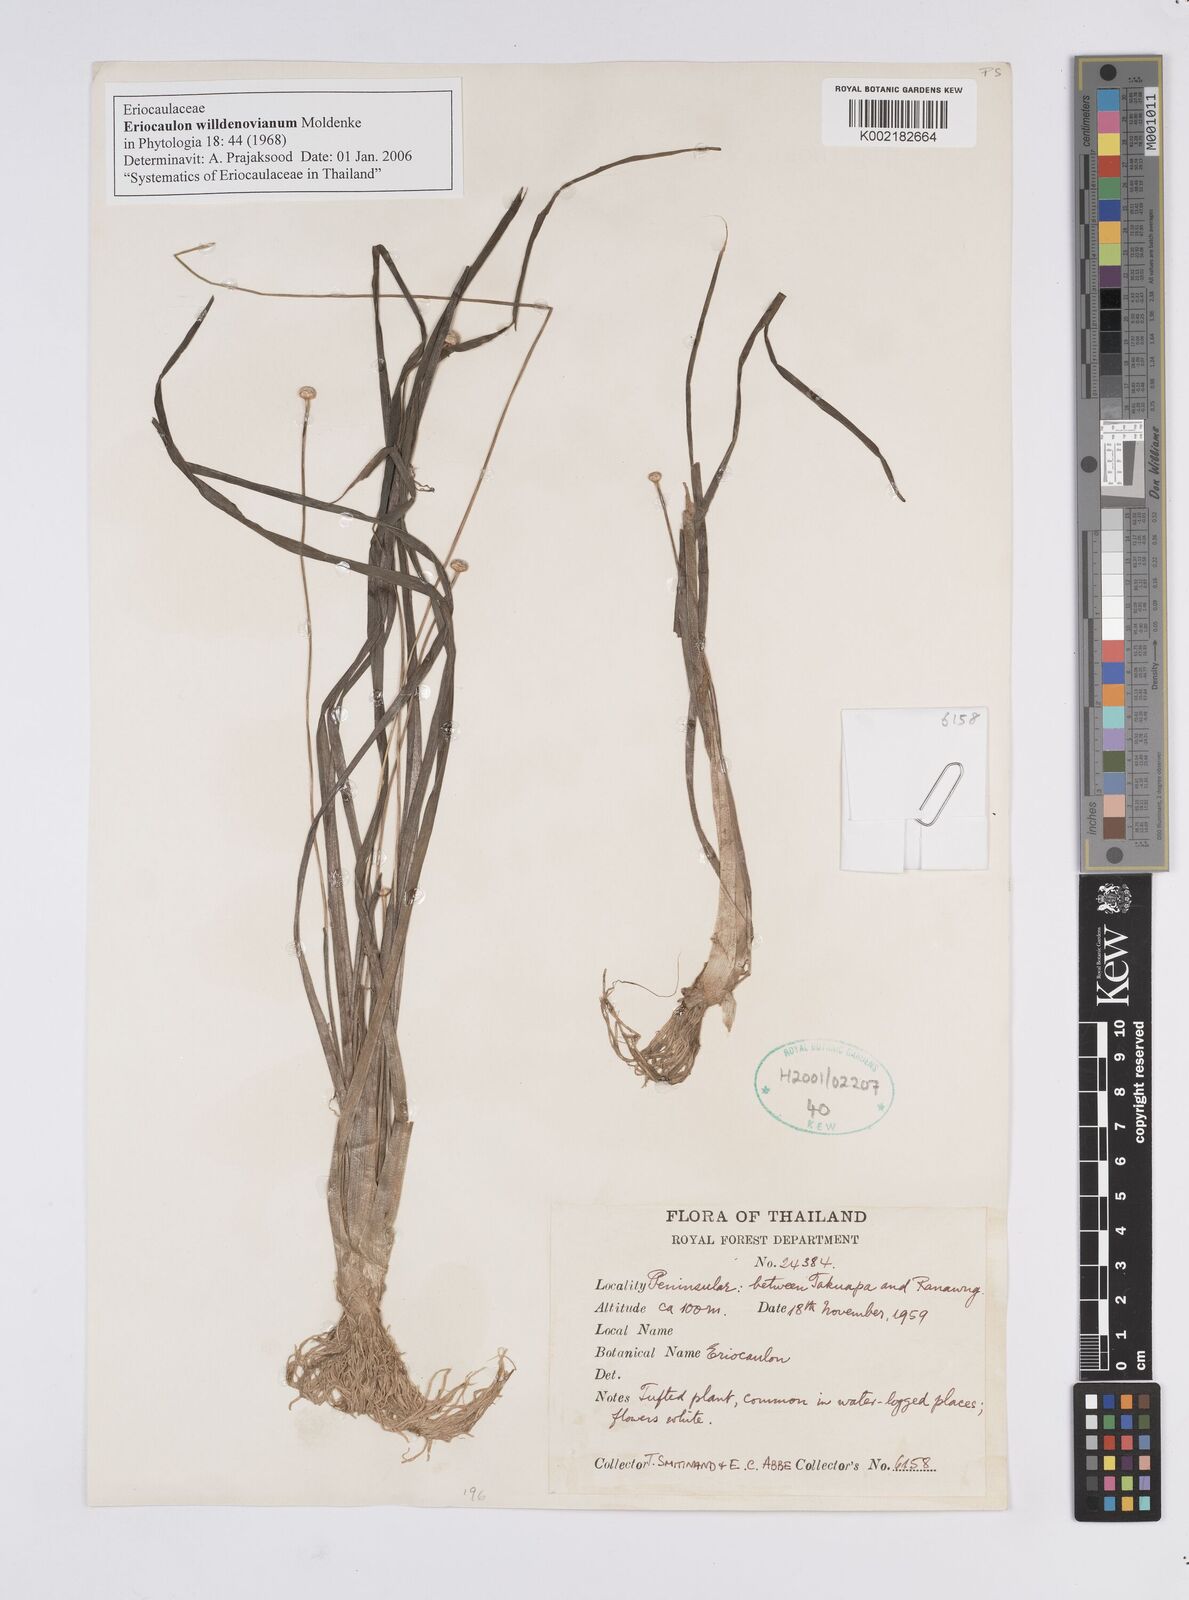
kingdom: Plantae
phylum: Tracheophyta
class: Liliopsida
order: Poales
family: Eriocaulaceae
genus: Eriocaulon
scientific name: Eriocaulon willdenovianum
